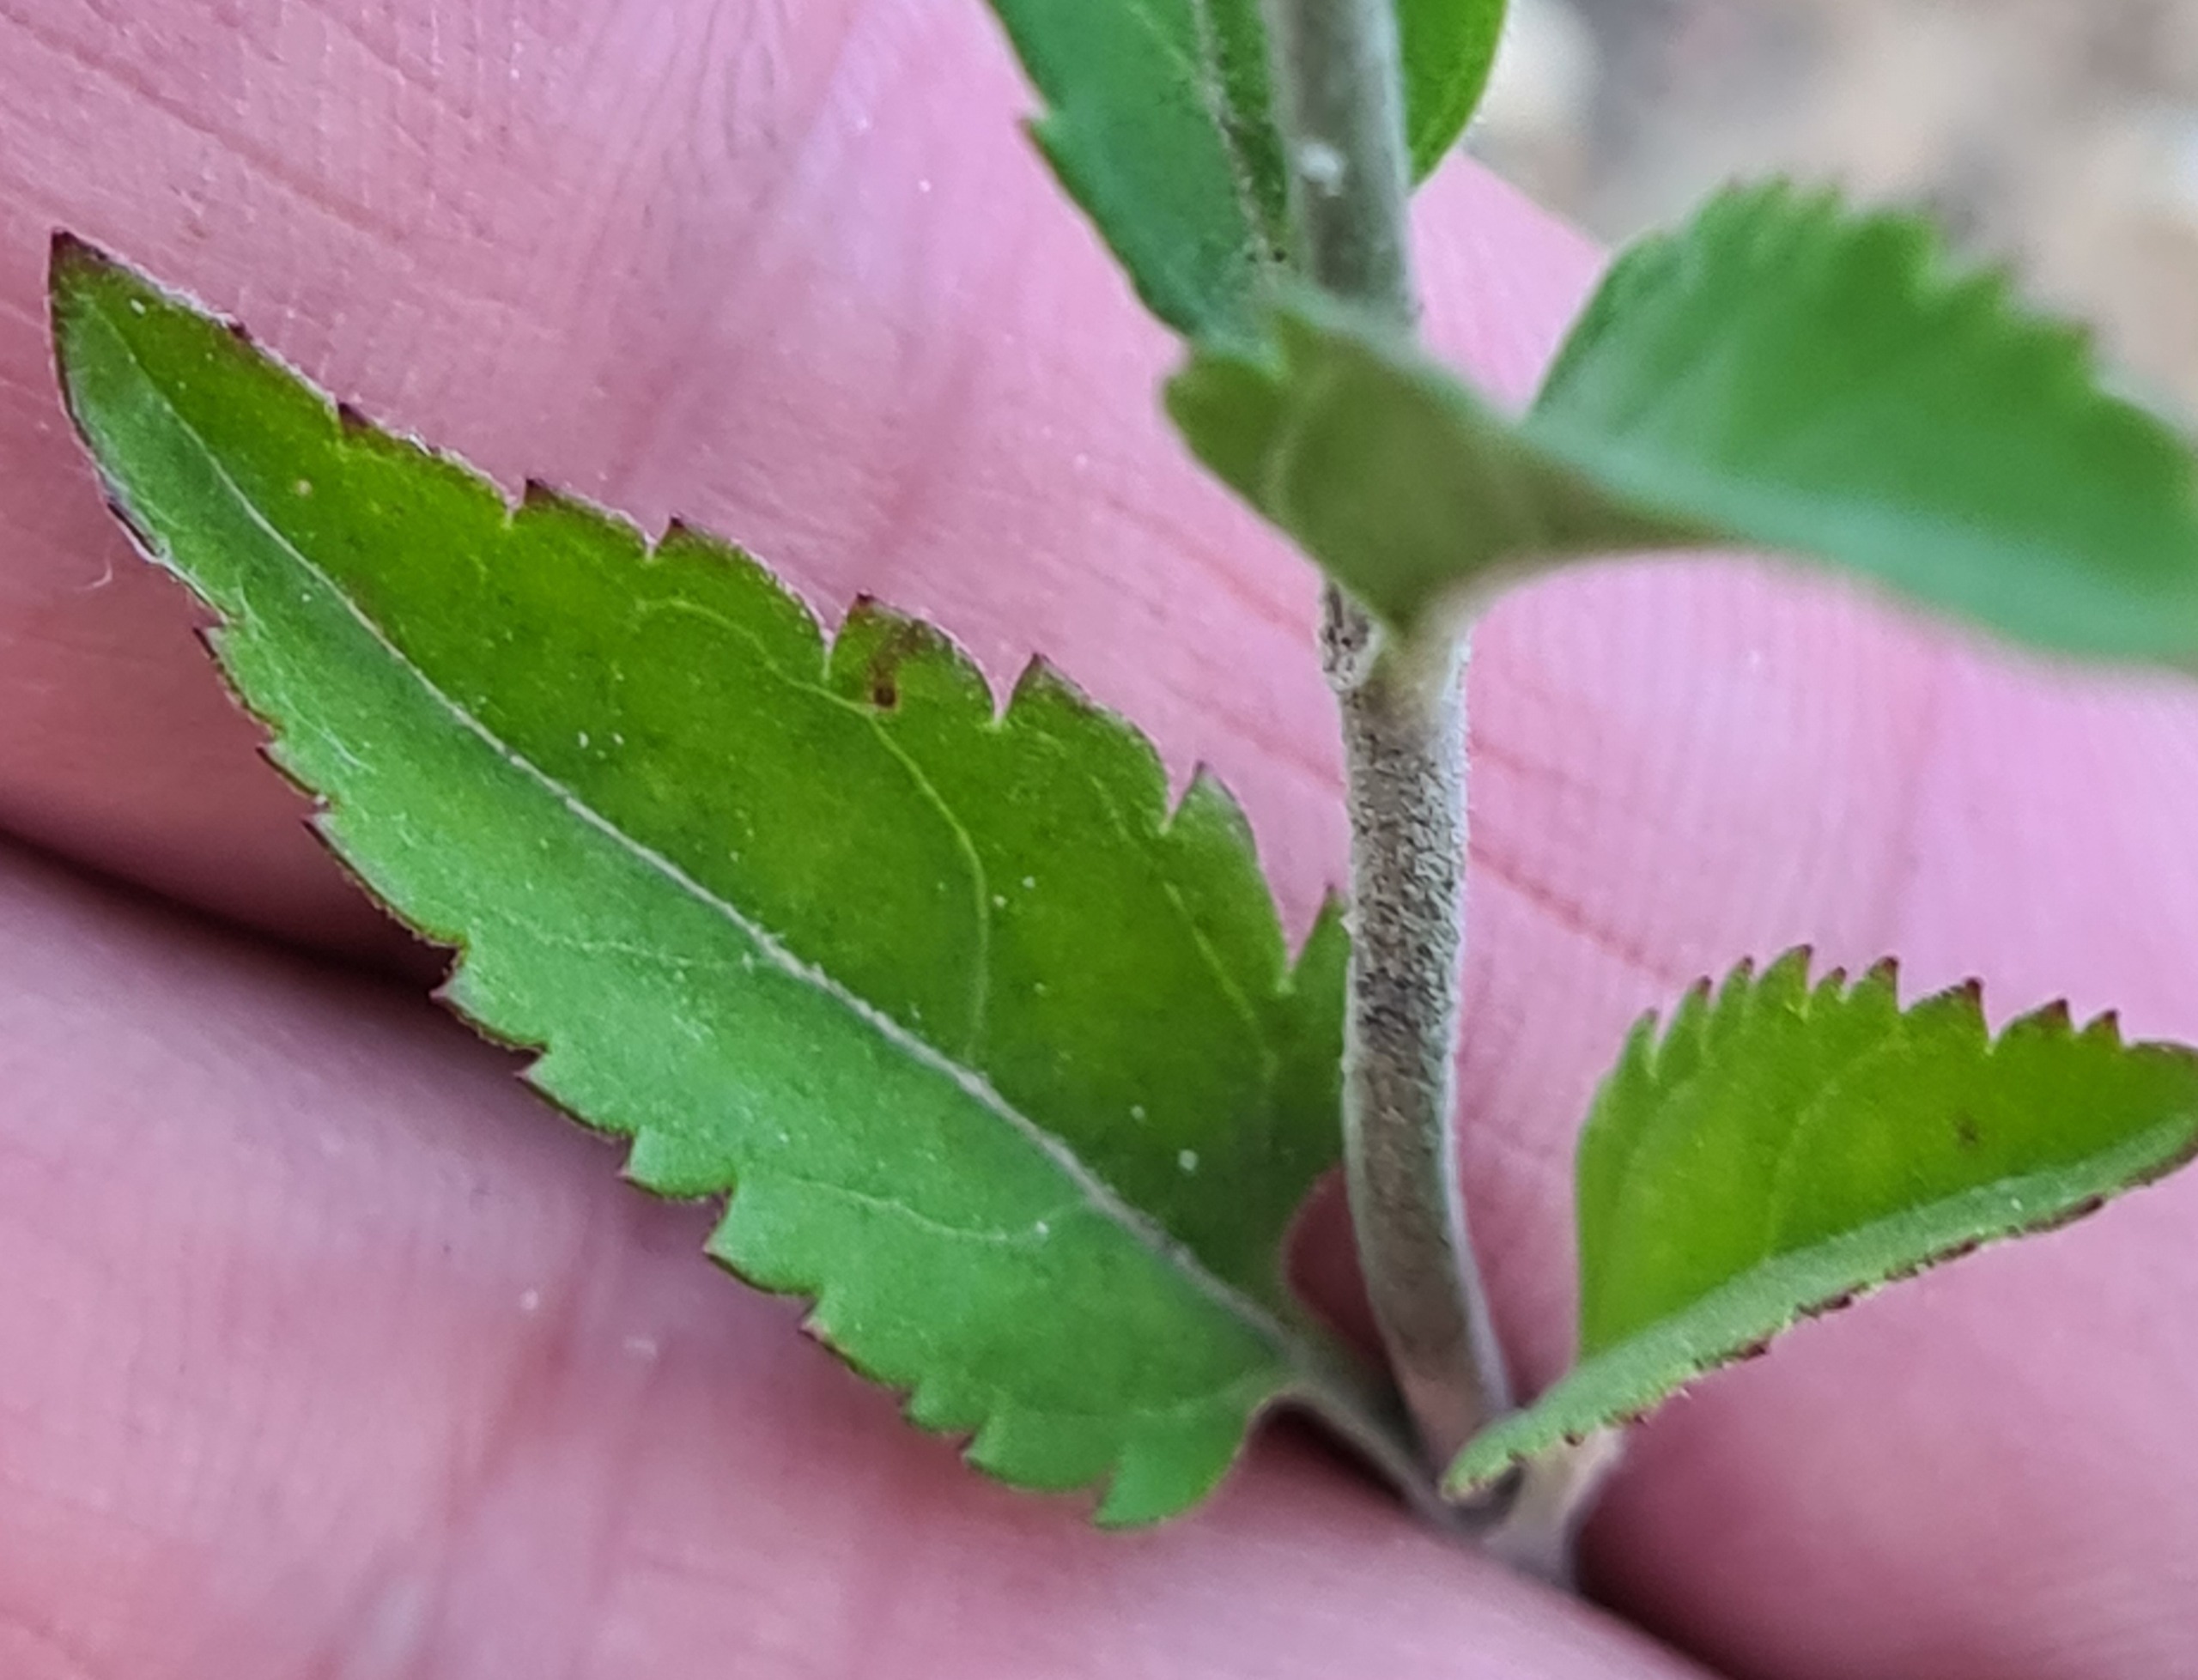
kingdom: Plantae
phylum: Tracheophyta
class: Magnoliopsida
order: Lamiales
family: Plantaginaceae
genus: Veronica
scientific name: Veronica longifolia
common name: Langbladet ærenpris
